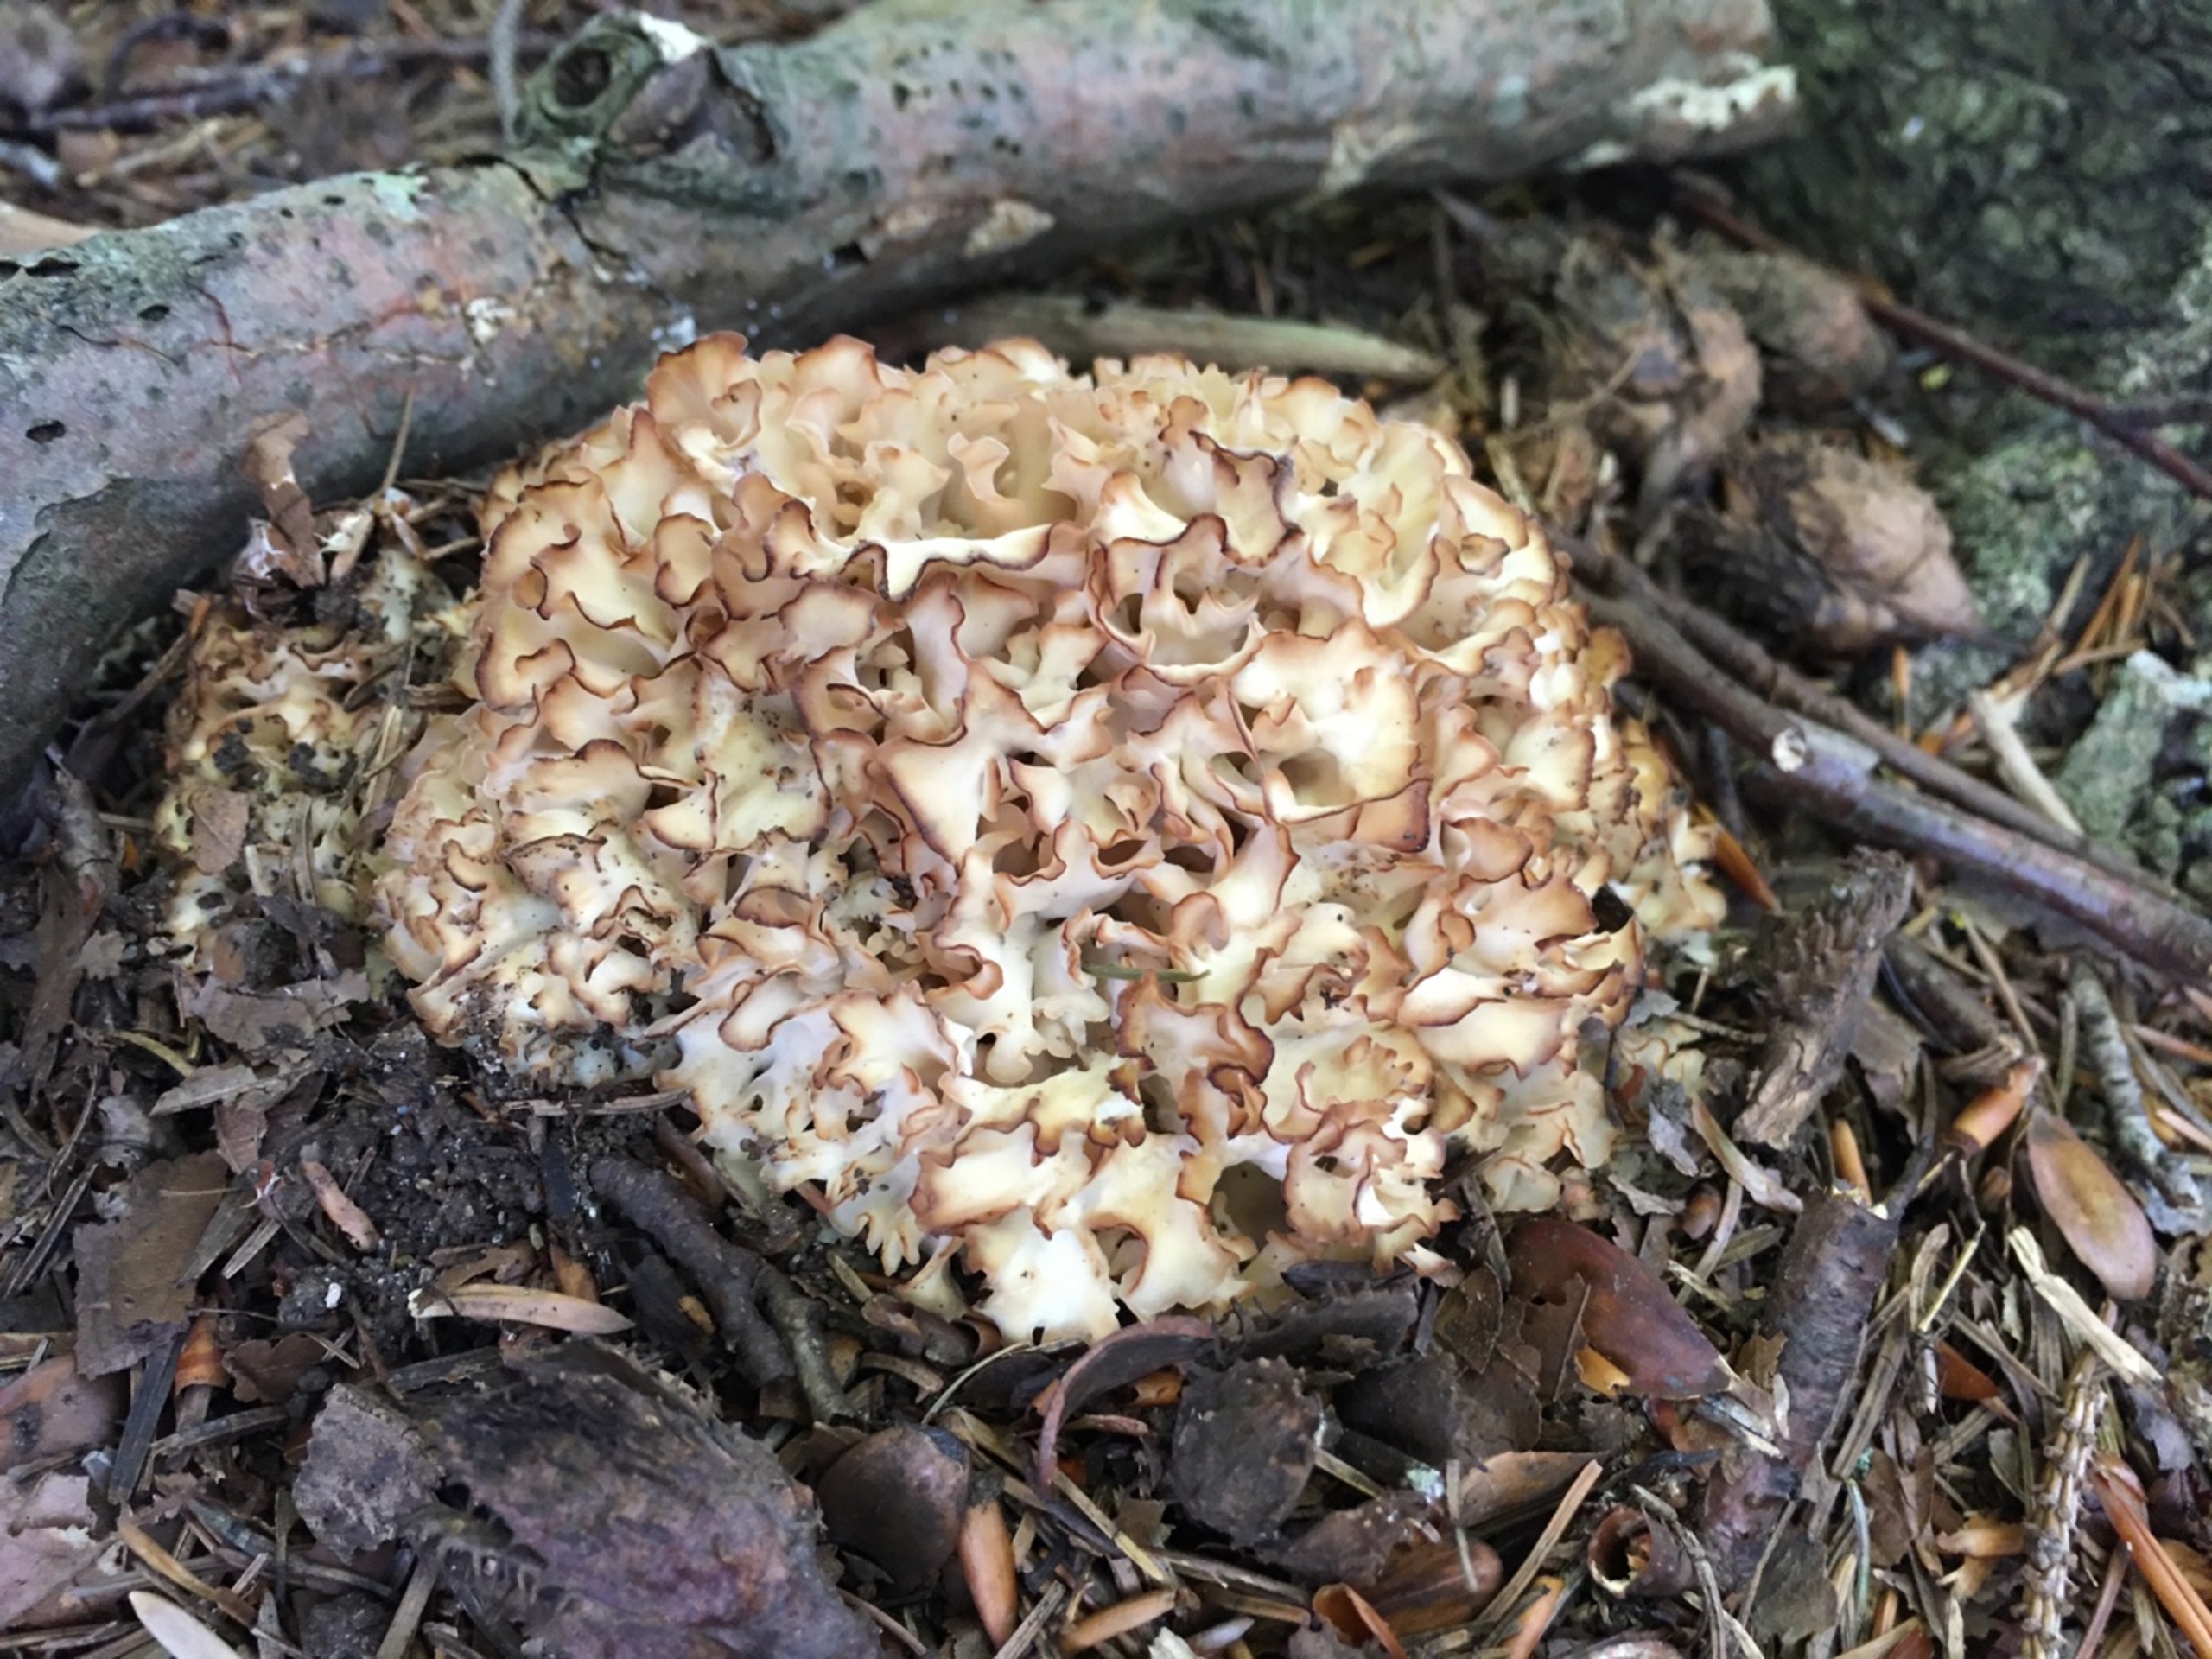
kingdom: Fungi
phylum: Basidiomycota
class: Agaricomycetes
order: Polyporales
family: Sparassidaceae
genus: Sparassis
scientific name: Sparassis crispa
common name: Kruset blomkålssvamp
